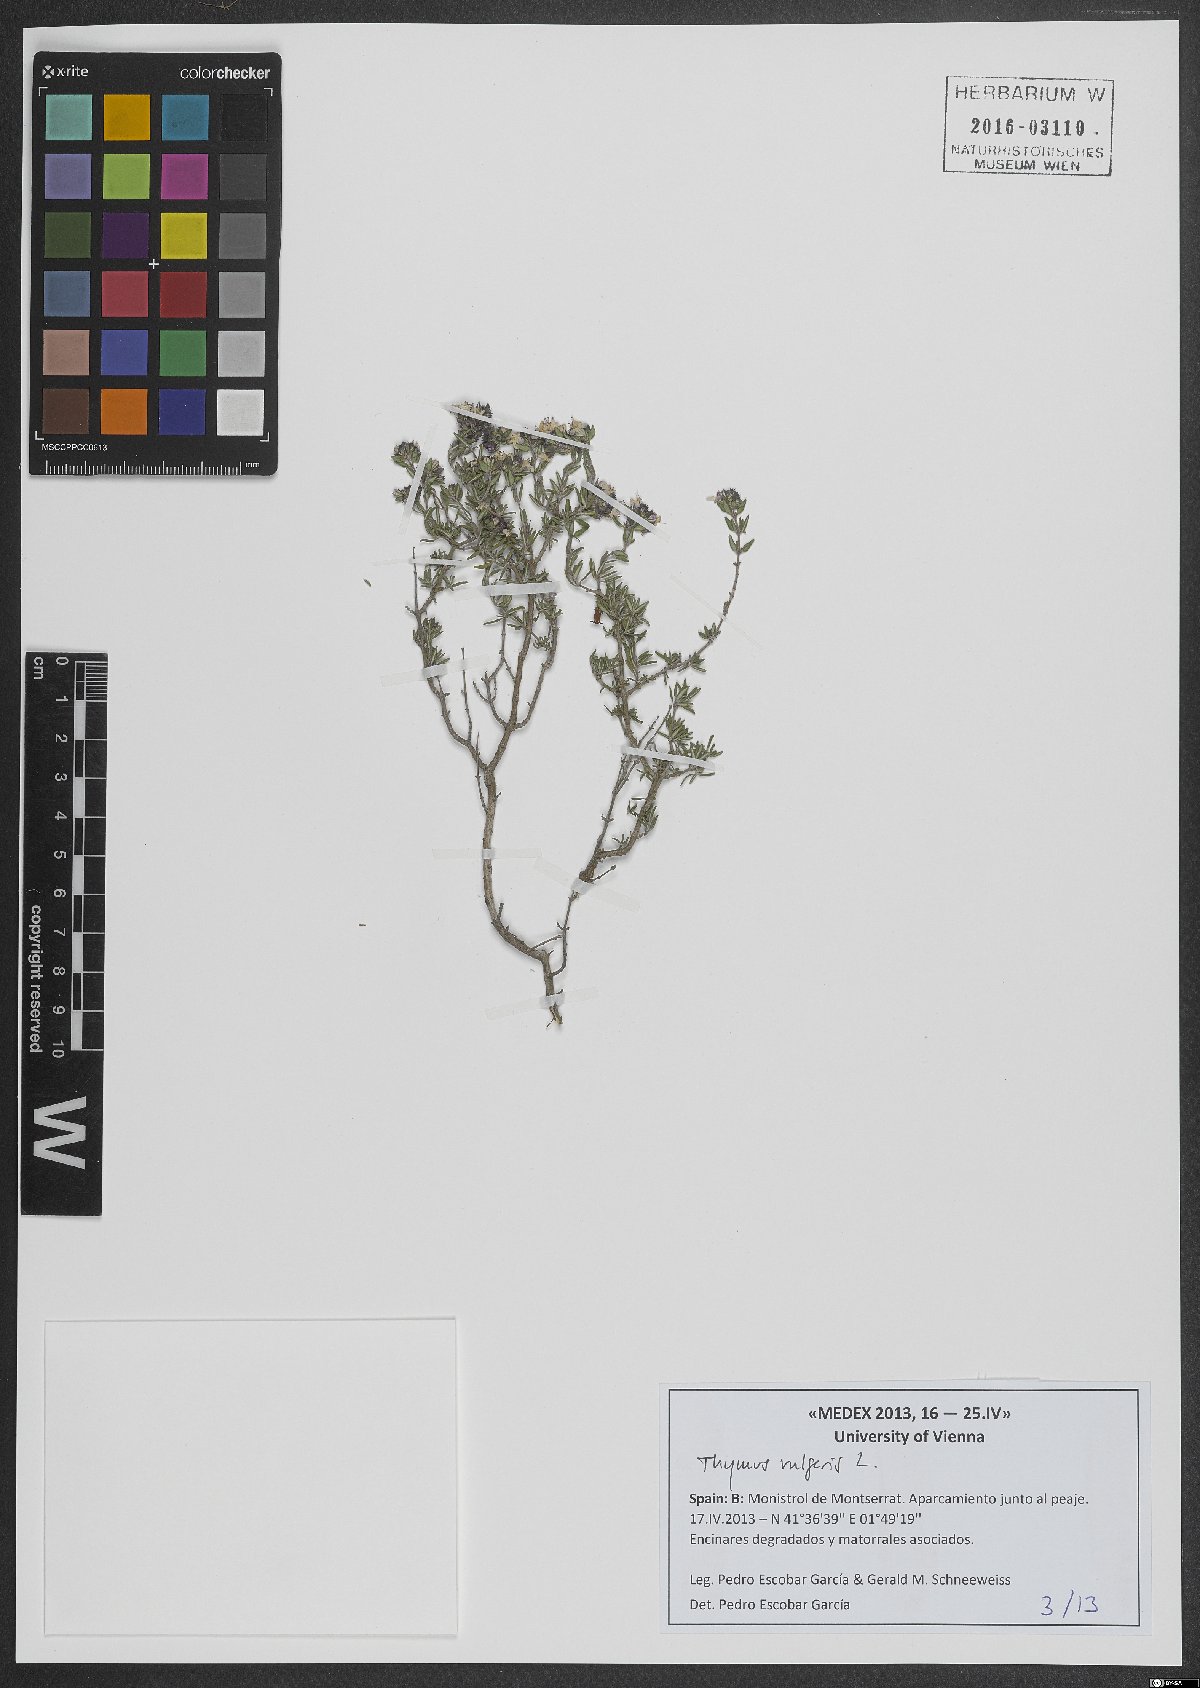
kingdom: Plantae
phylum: Tracheophyta
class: Magnoliopsida
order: Lamiales
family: Lamiaceae
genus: Thymus
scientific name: Thymus vulgaris
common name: Garden thyme
